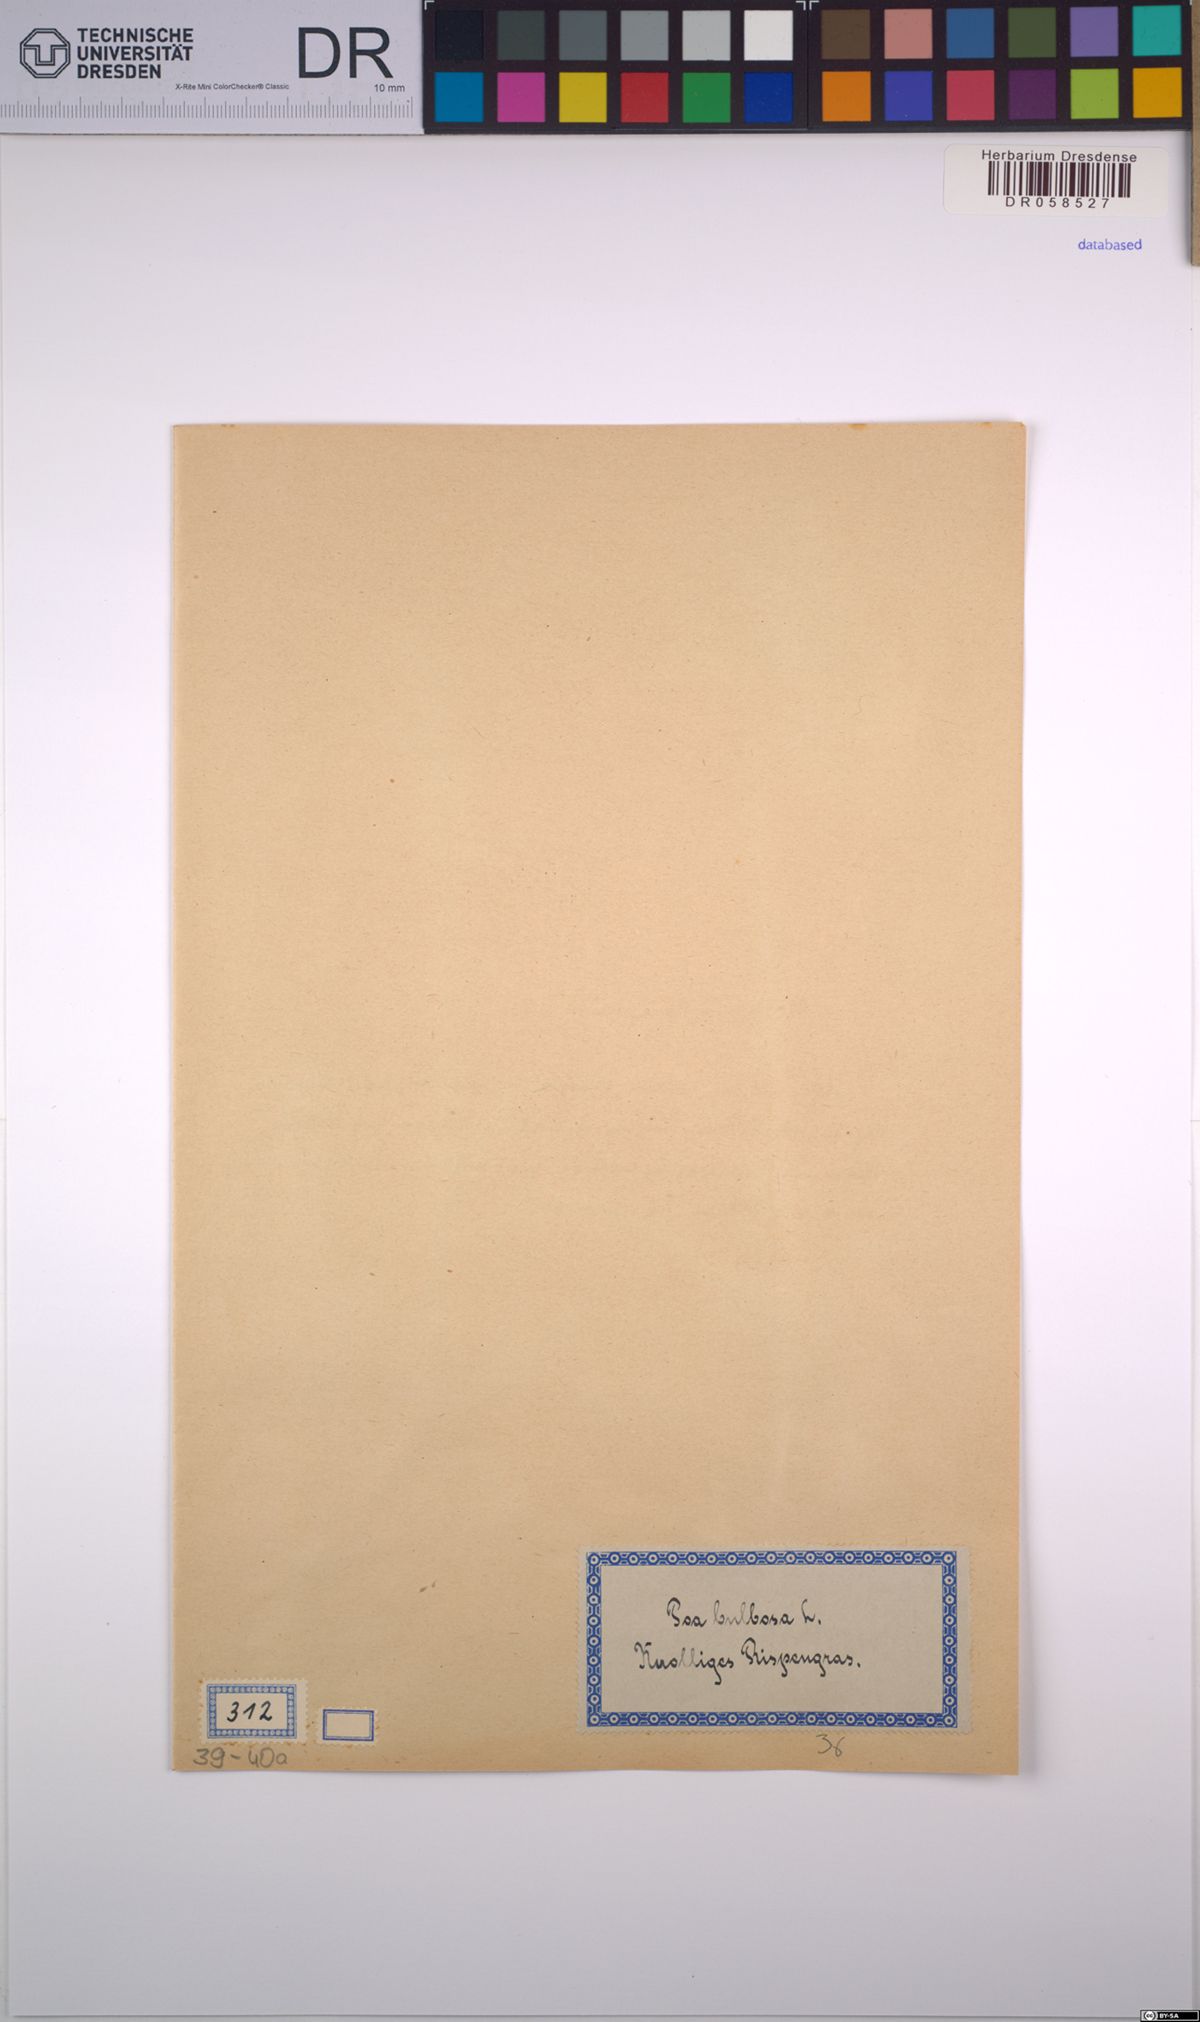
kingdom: Plantae
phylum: Tracheophyta
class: Liliopsida
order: Poales
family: Poaceae
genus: Poa
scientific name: Poa bulbosa
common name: Bulbous bluegrass
